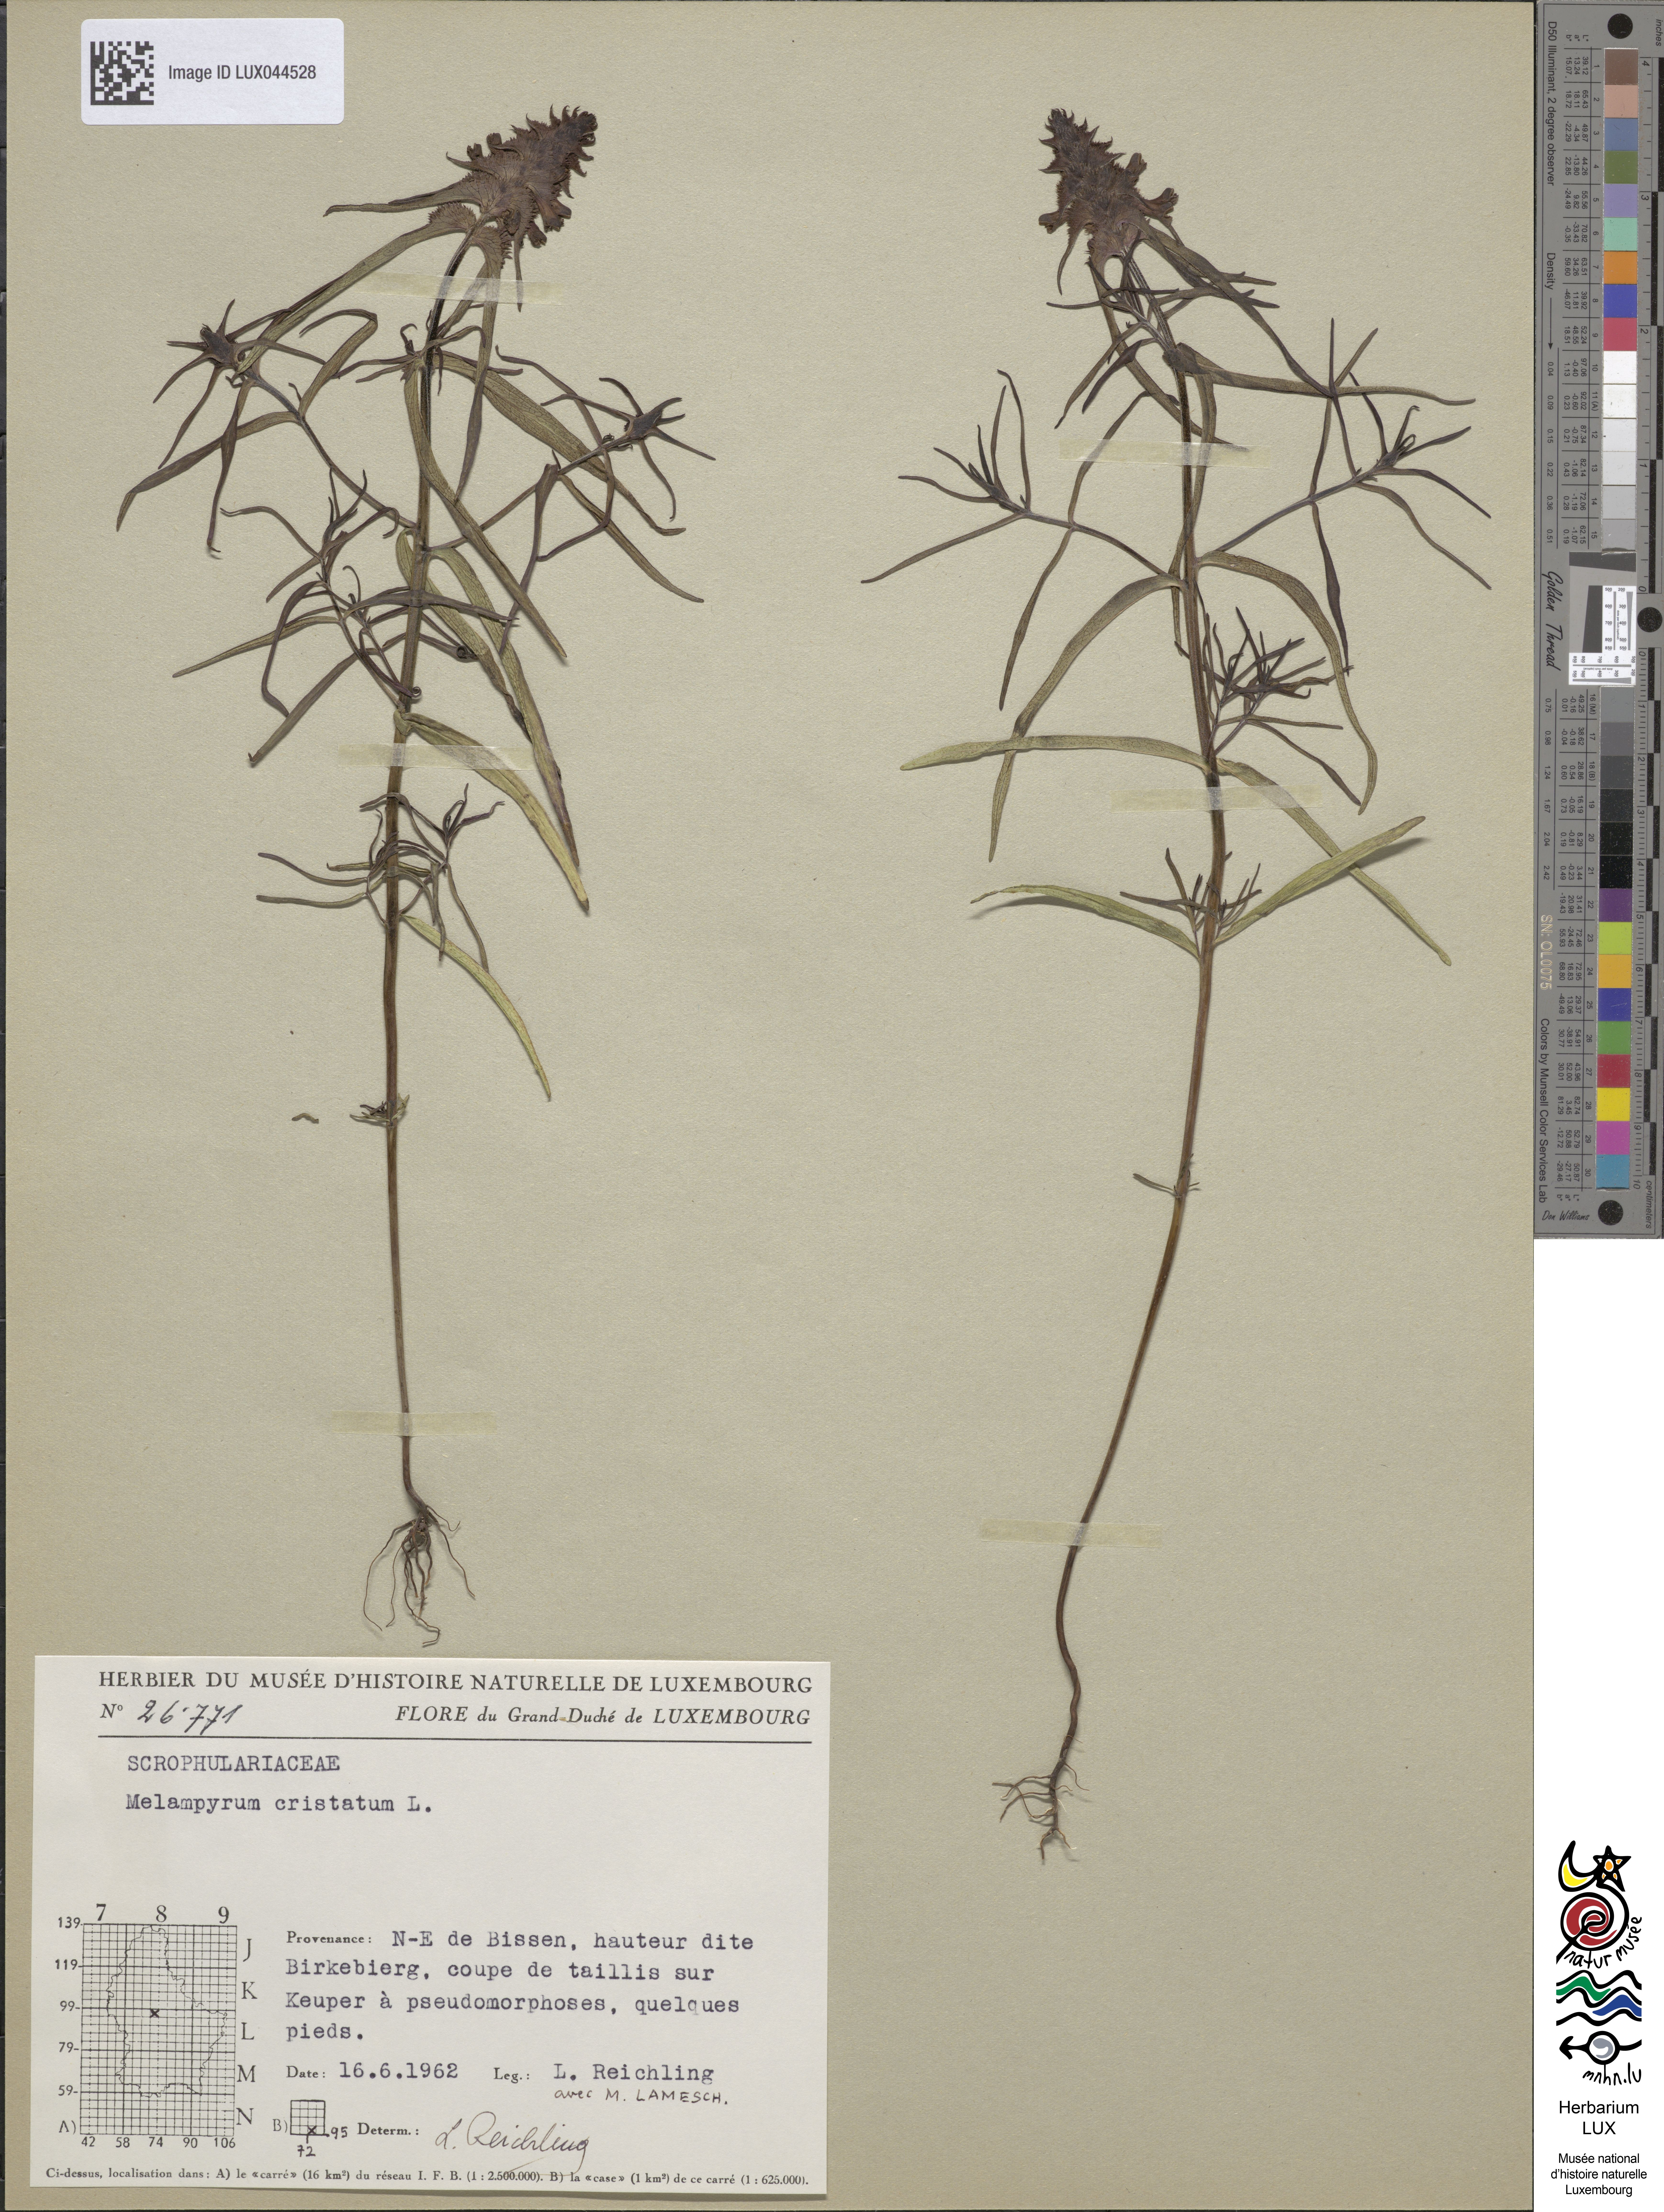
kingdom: Plantae
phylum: Tracheophyta
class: Magnoliopsida
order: Lamiales
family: Orobanchaceae
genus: Melampyrum
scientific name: Melampyrum cristatum
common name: Crested cow-wheat
